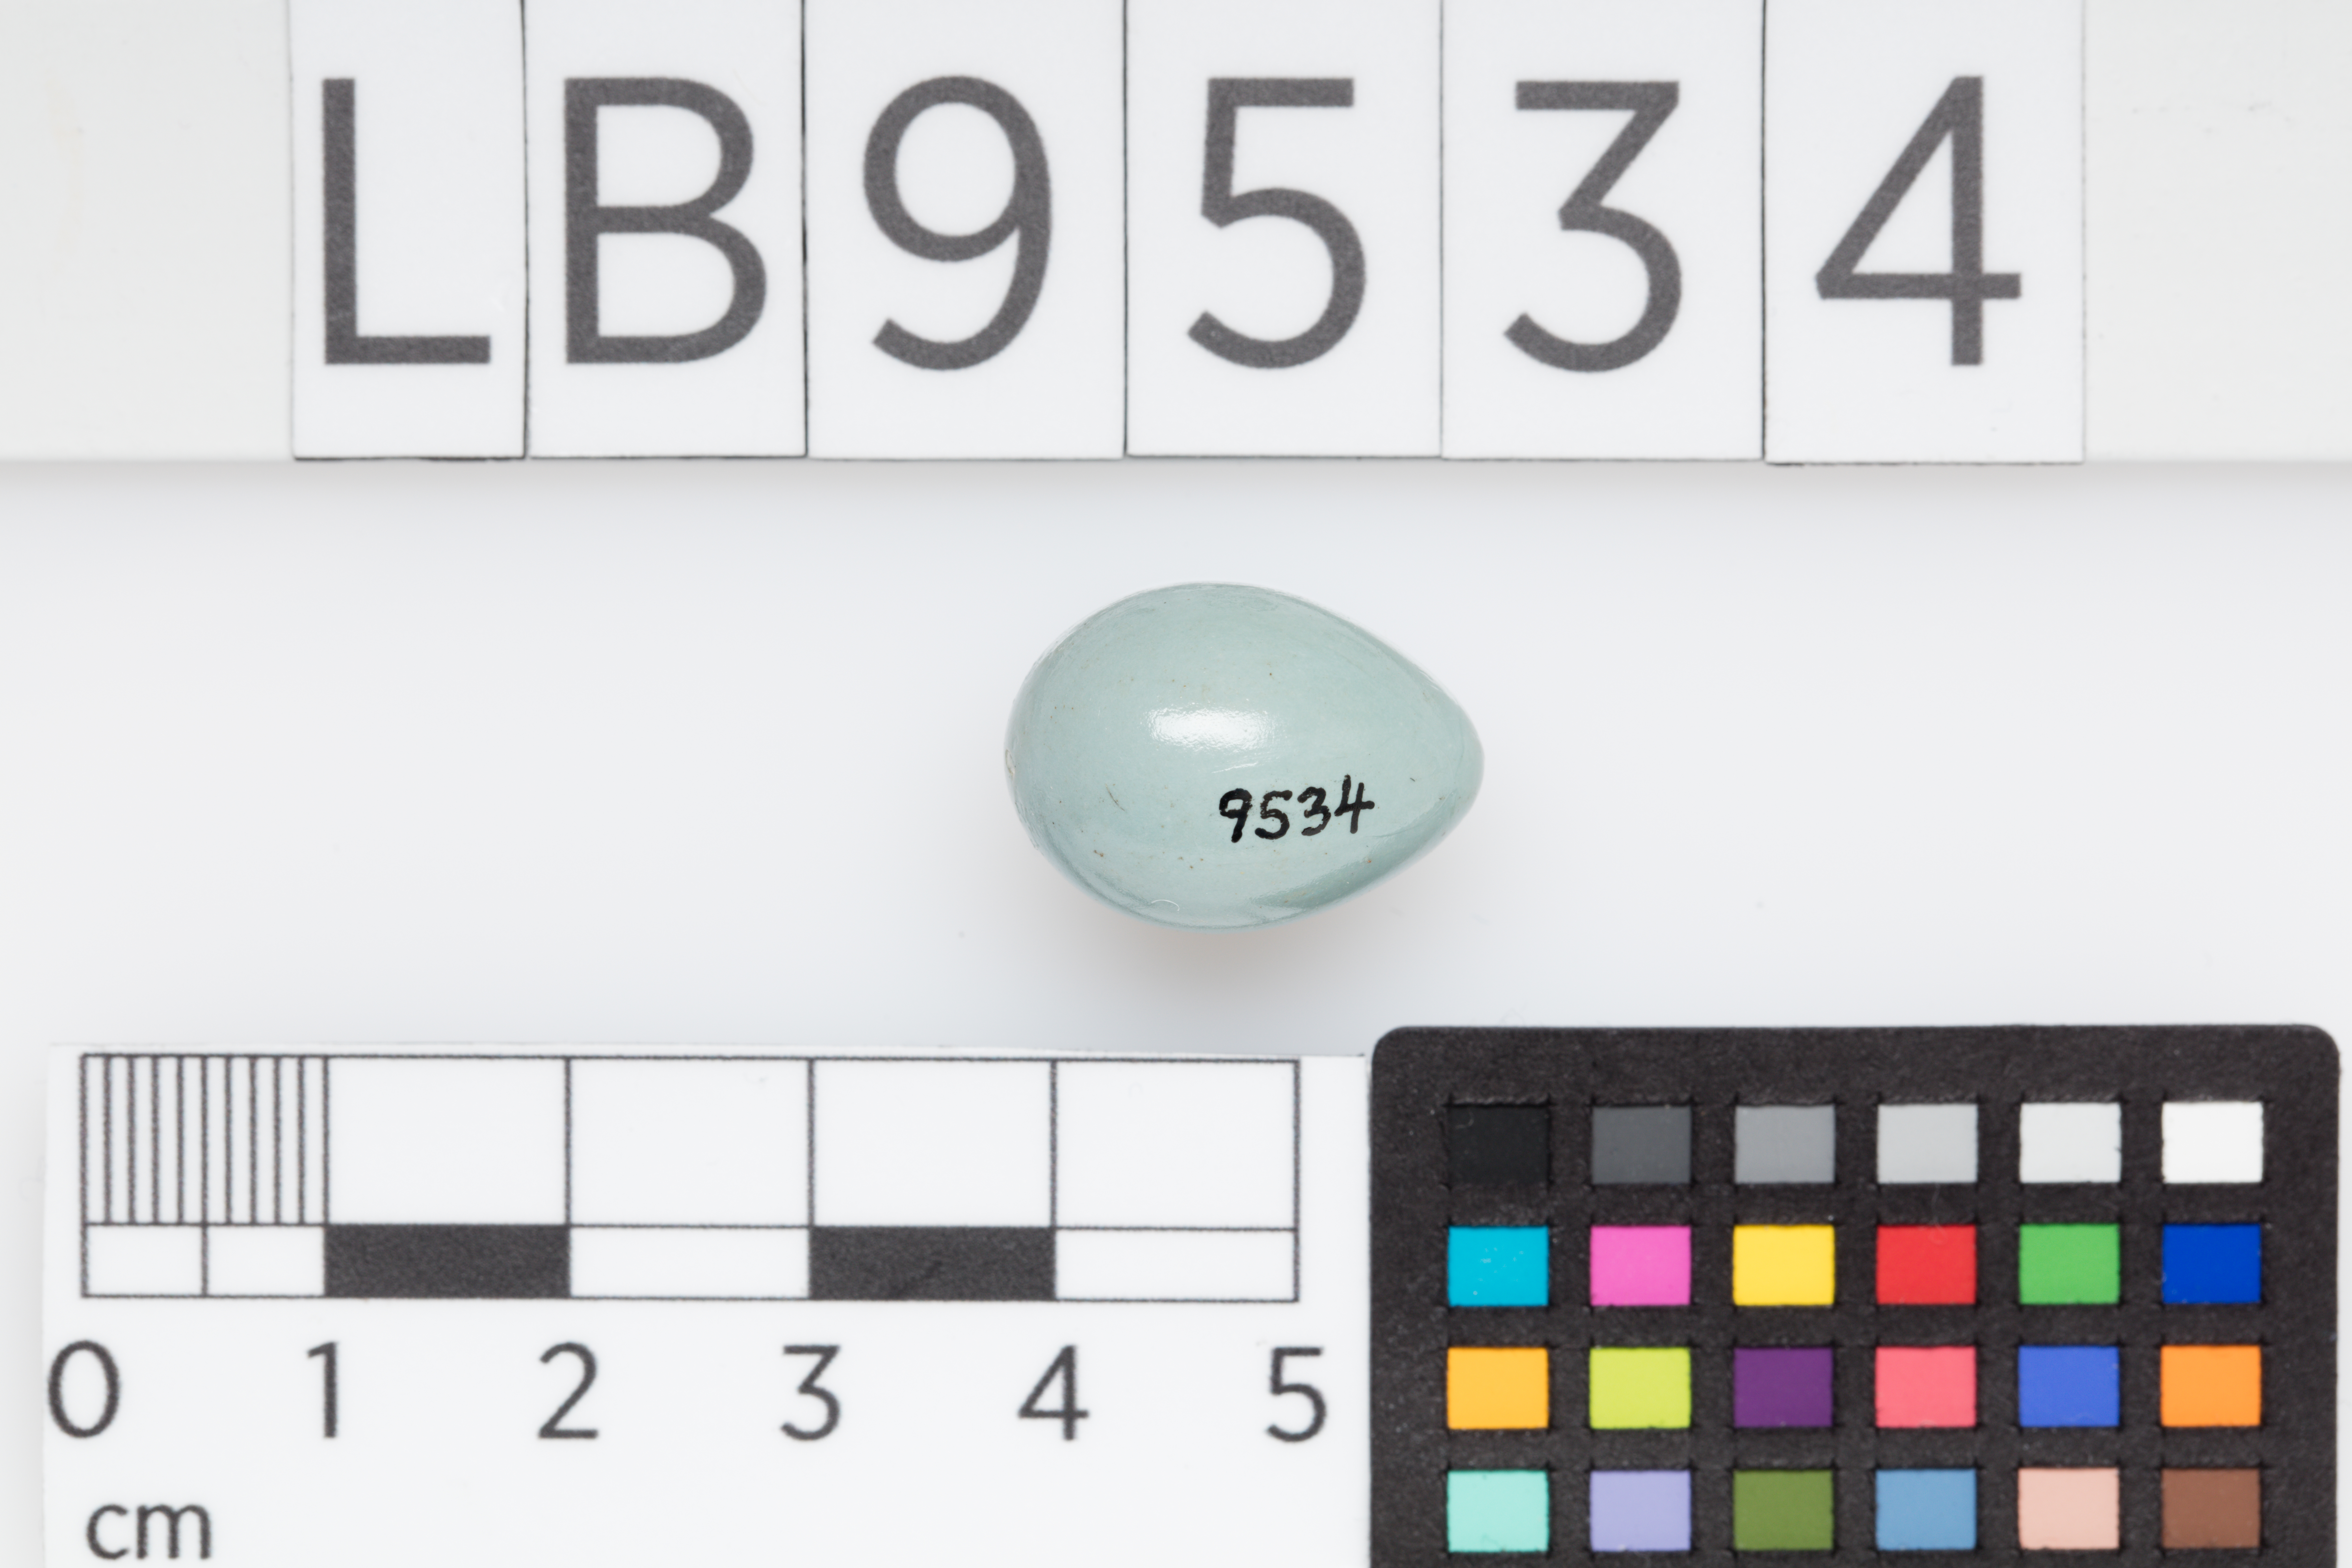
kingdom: Animalia
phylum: Chordata
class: Aves
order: Passeriformes
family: Prunellidae
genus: Prunella
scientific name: Prunella modularis
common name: Dunnock
